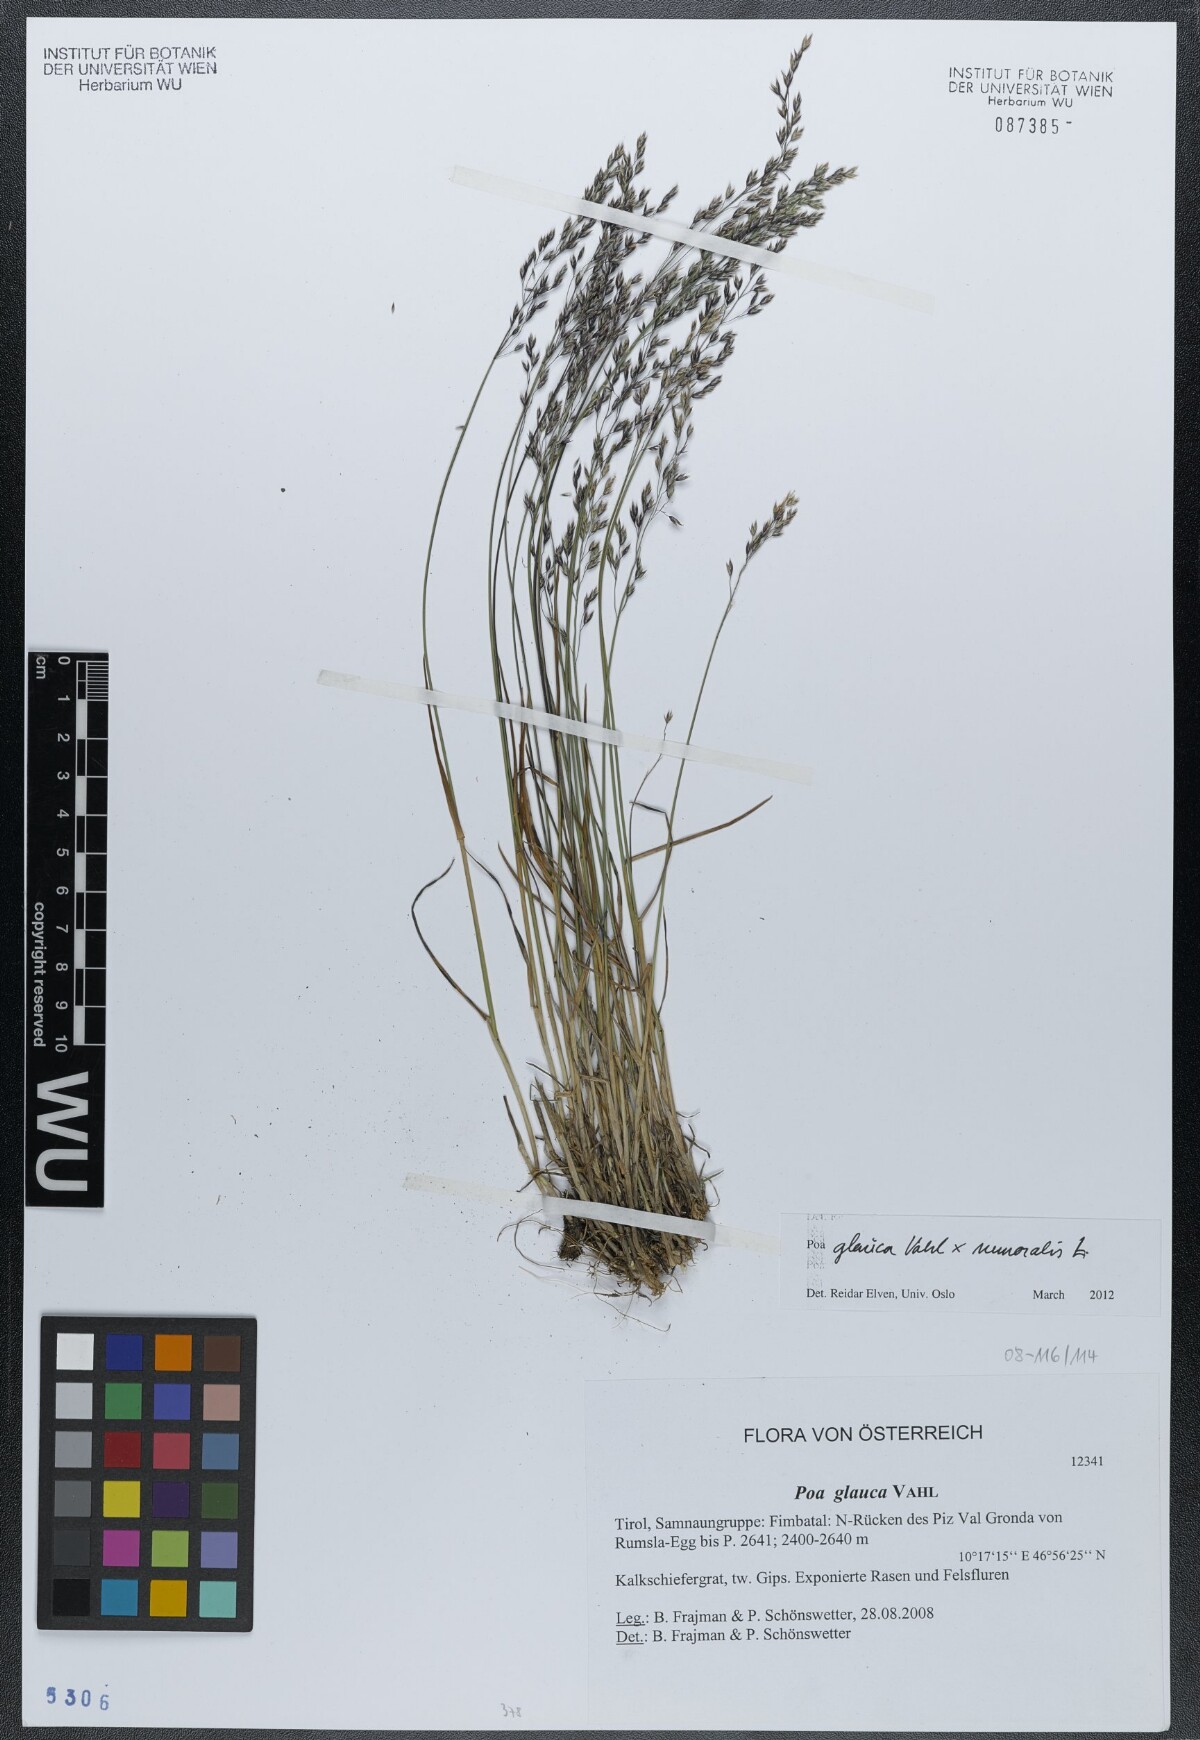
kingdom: Plantae
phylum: Tracheophyta
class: Liliopsida
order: Poales
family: Poaceae
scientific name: Poaceae
